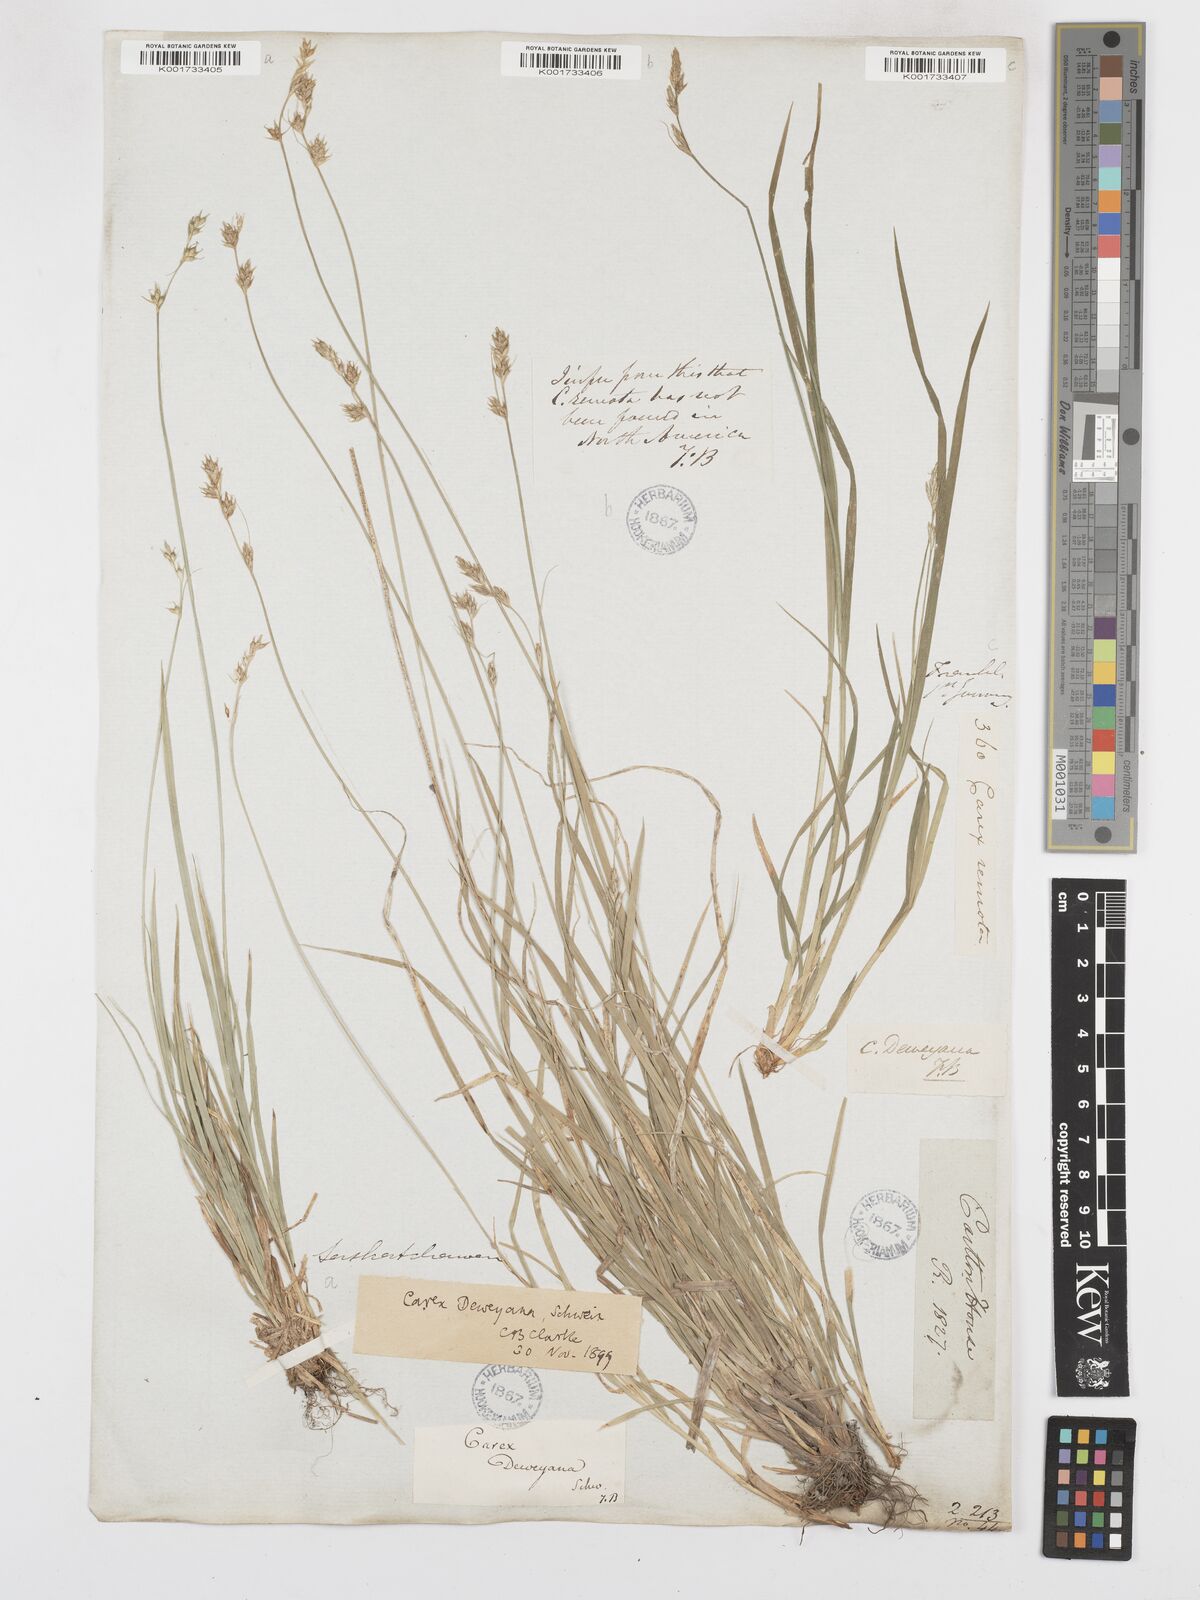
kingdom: Plantae
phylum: Tracheophyta
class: Liliopsida
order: Poales
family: Cyperaceae
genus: Carex
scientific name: Carex deweyana
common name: Dewey's sedge
